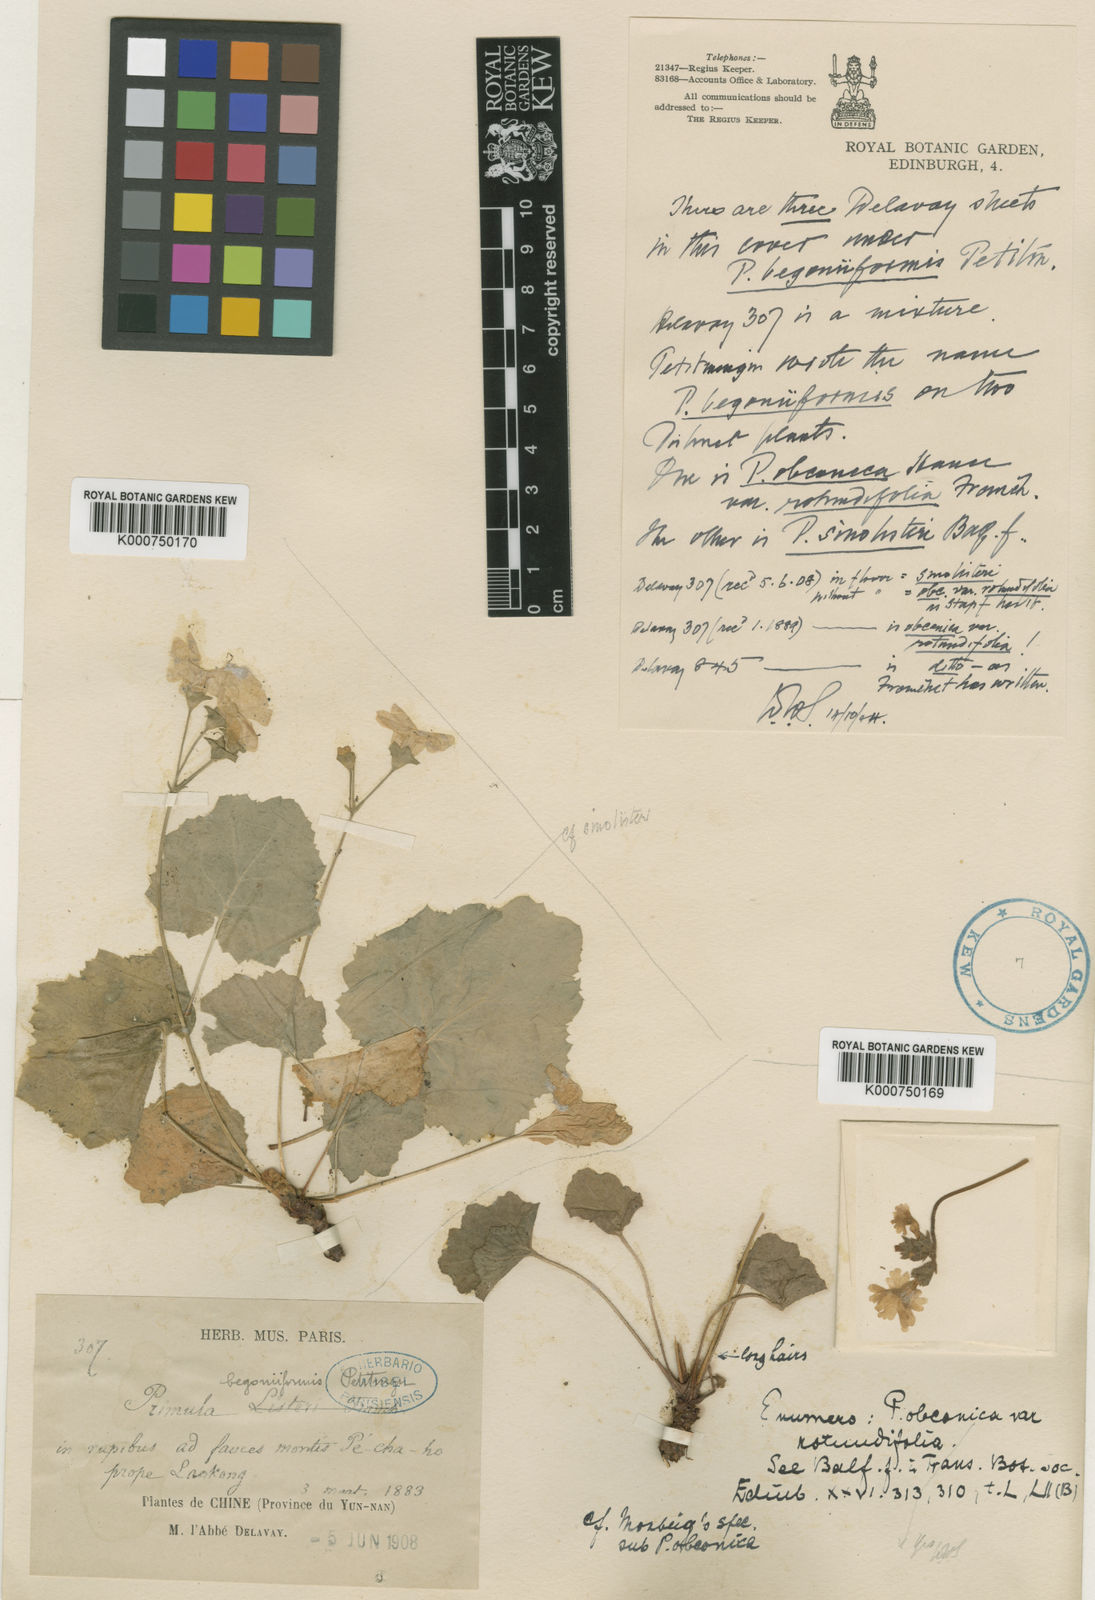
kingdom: Plantae
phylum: Tracheophyta
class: Magnoliopsida
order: Ericales
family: Primulaceae
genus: Primula
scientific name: Primula obconica
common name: German primrose
